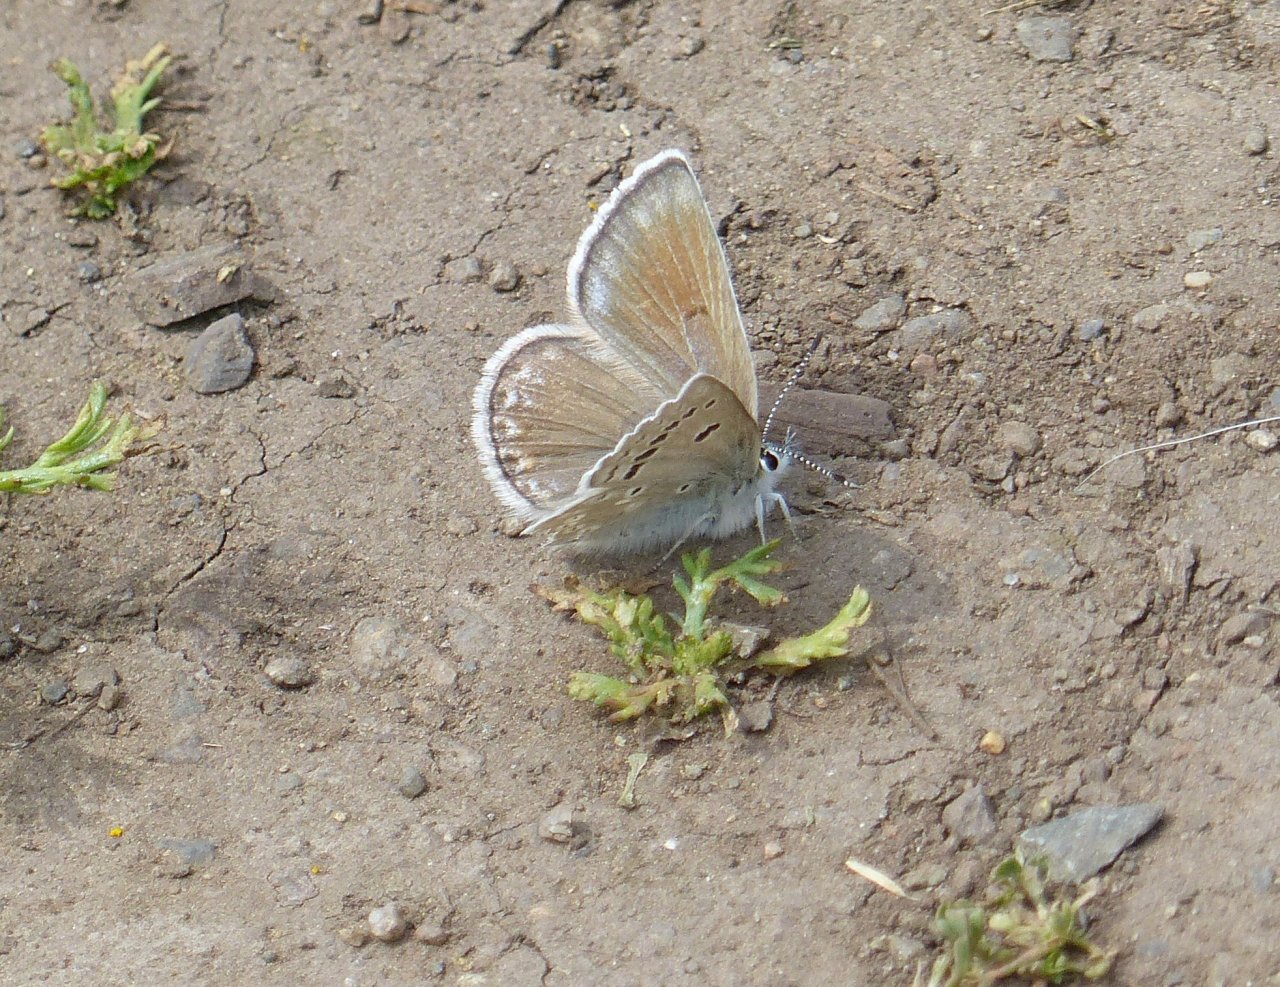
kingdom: Animalia
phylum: Arthropoda
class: Insecta
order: Lepidoptera
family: Lycaenidae
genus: Icaricia
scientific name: Icaricia icarioides
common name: Boisduval's Blue
